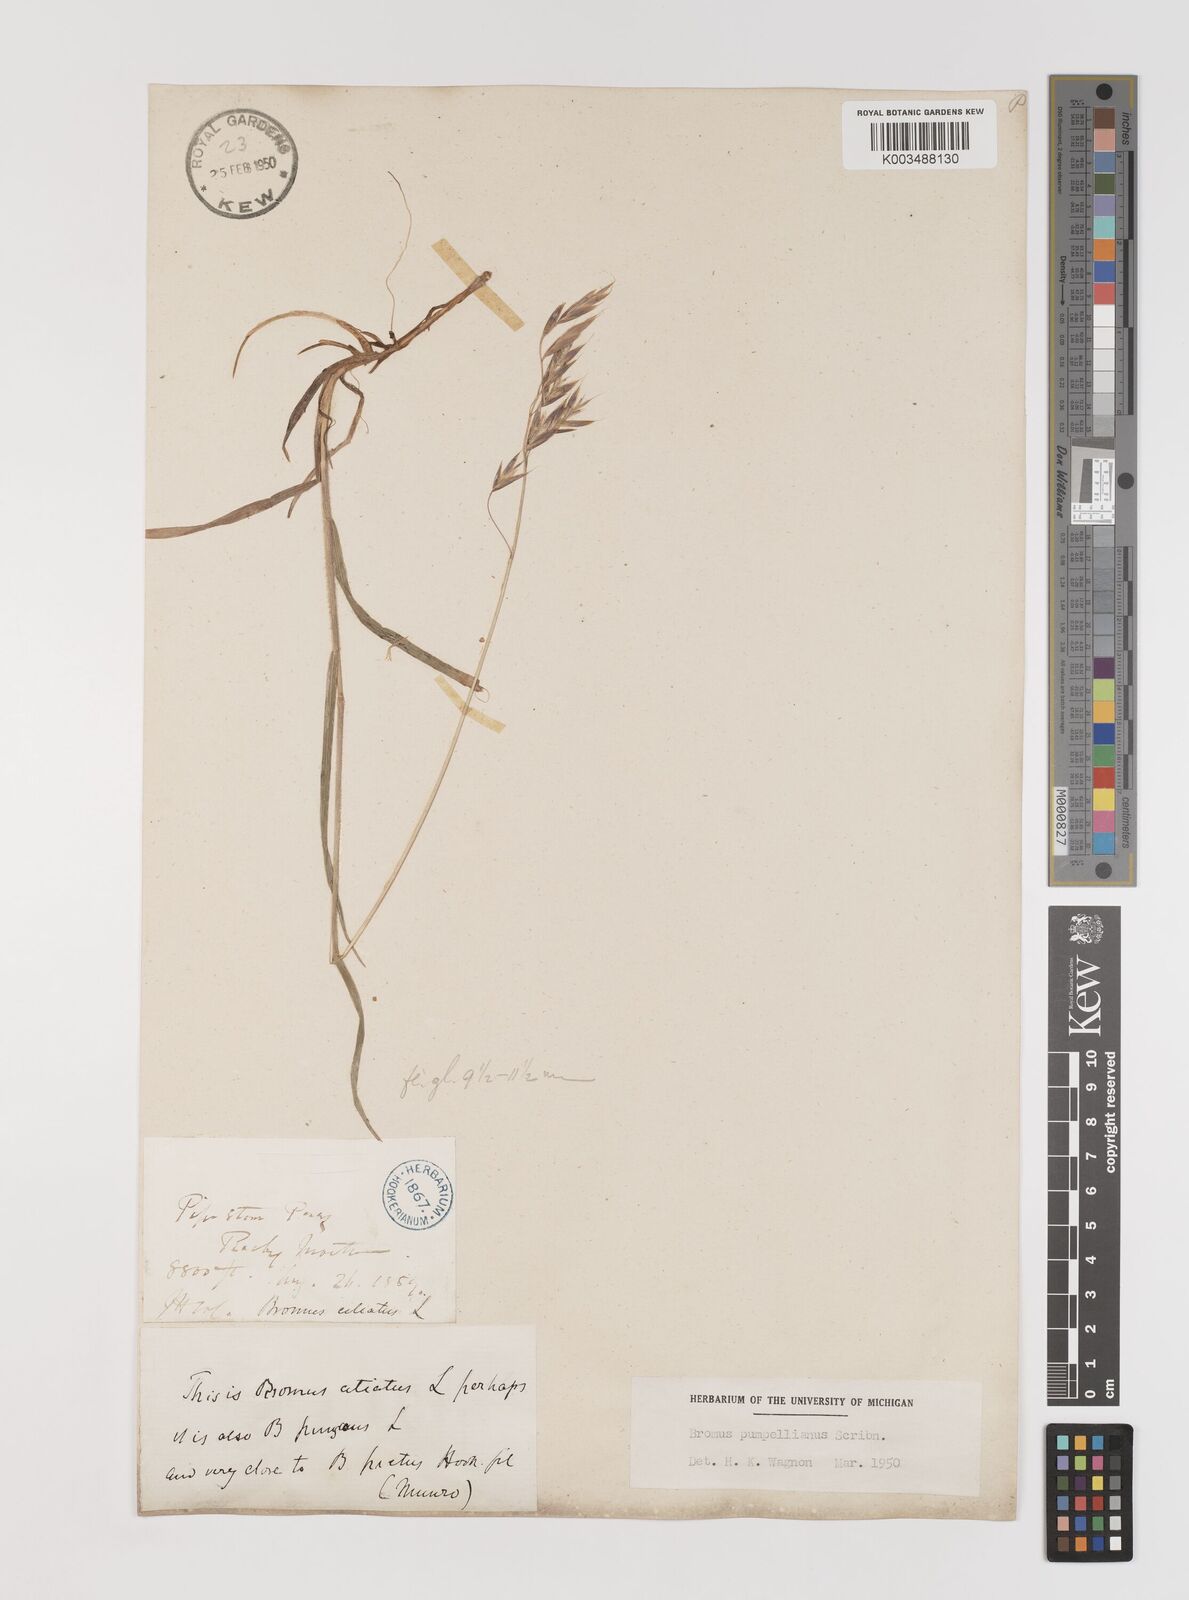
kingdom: Plantae
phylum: Tracheophyta
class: Liliopsida
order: Poales
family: Poaceae
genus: Bromus
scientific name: Bromus pumpellianus
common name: Pumpelly's brome
